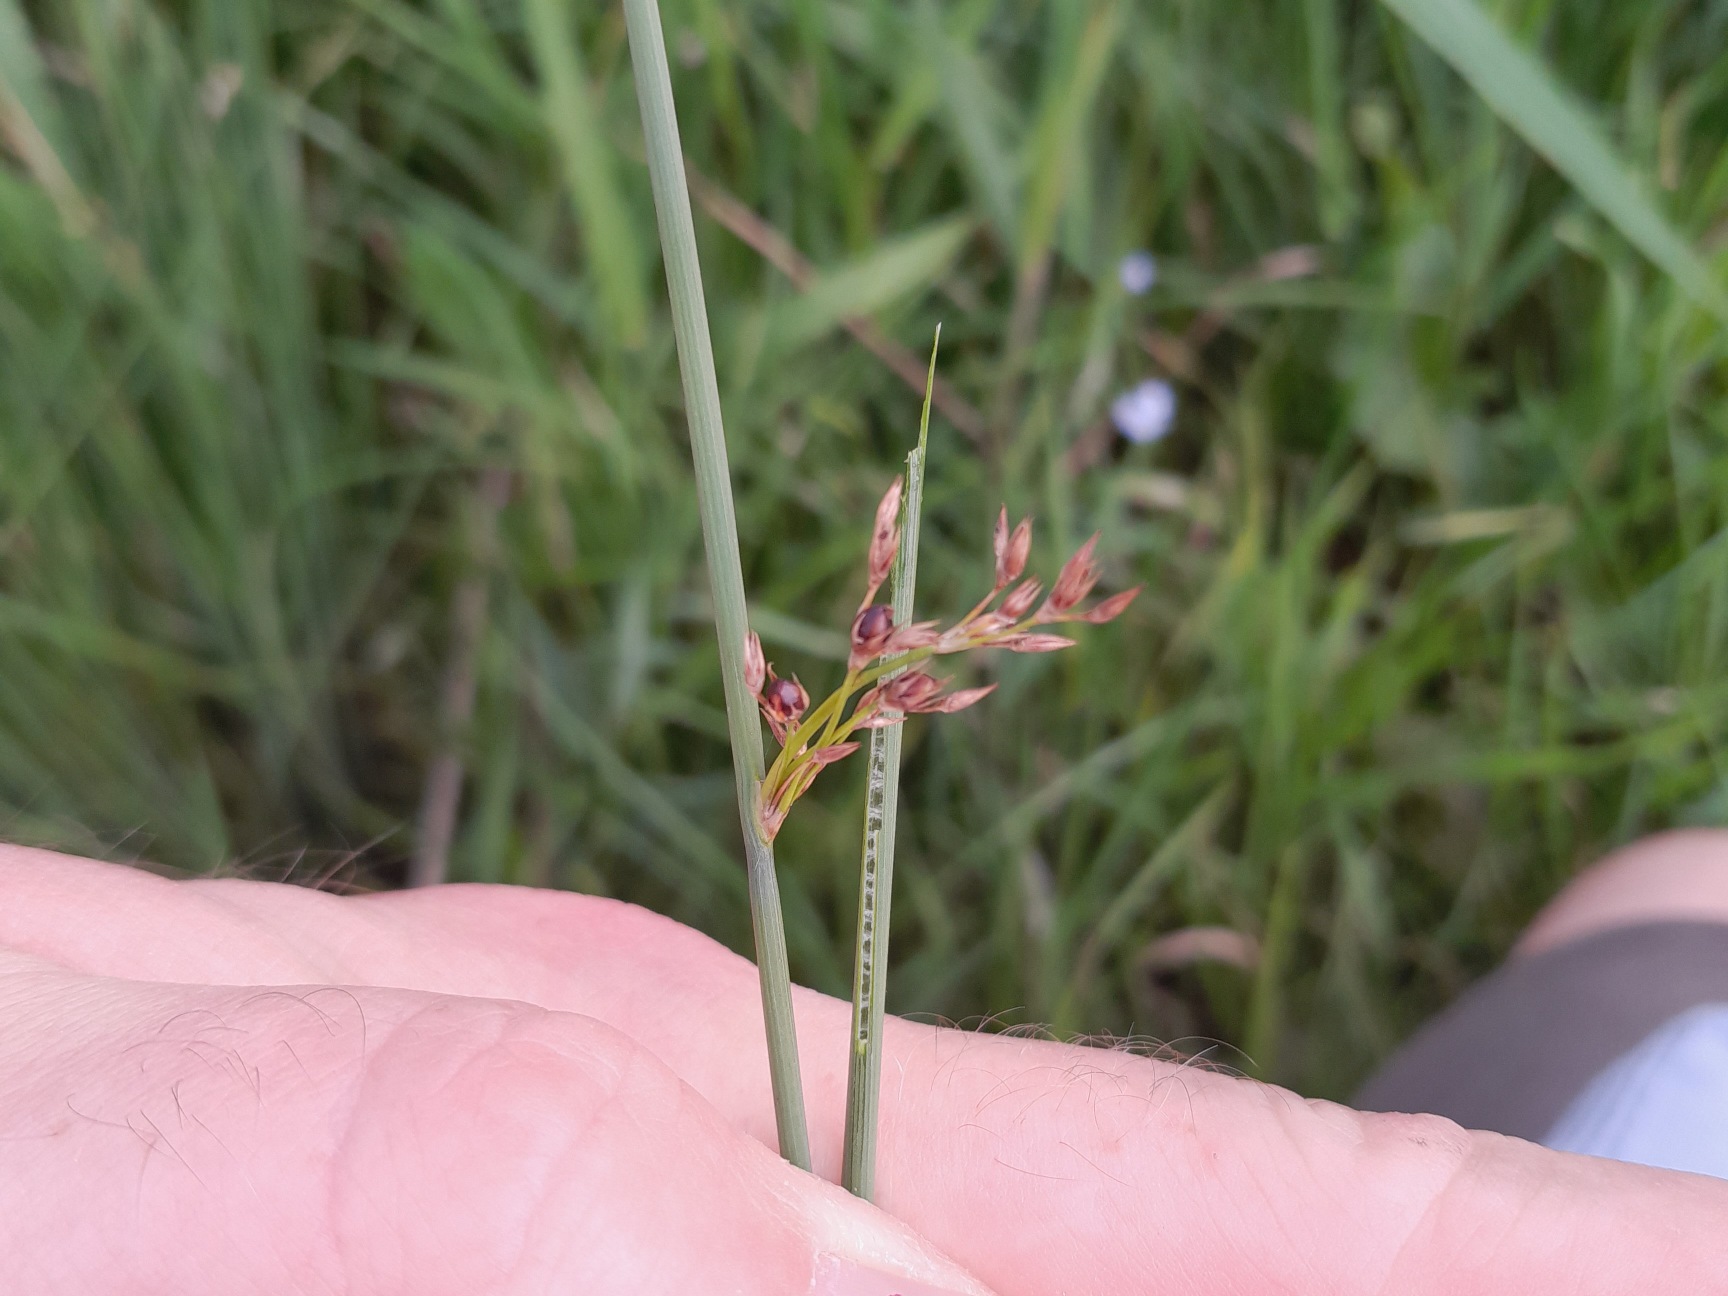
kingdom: Plantae
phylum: Tracheophyta
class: Liliopsida
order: Poales
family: Juncaceae
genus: Juncus
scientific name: Juncus inflexus
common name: Blågrå siv
